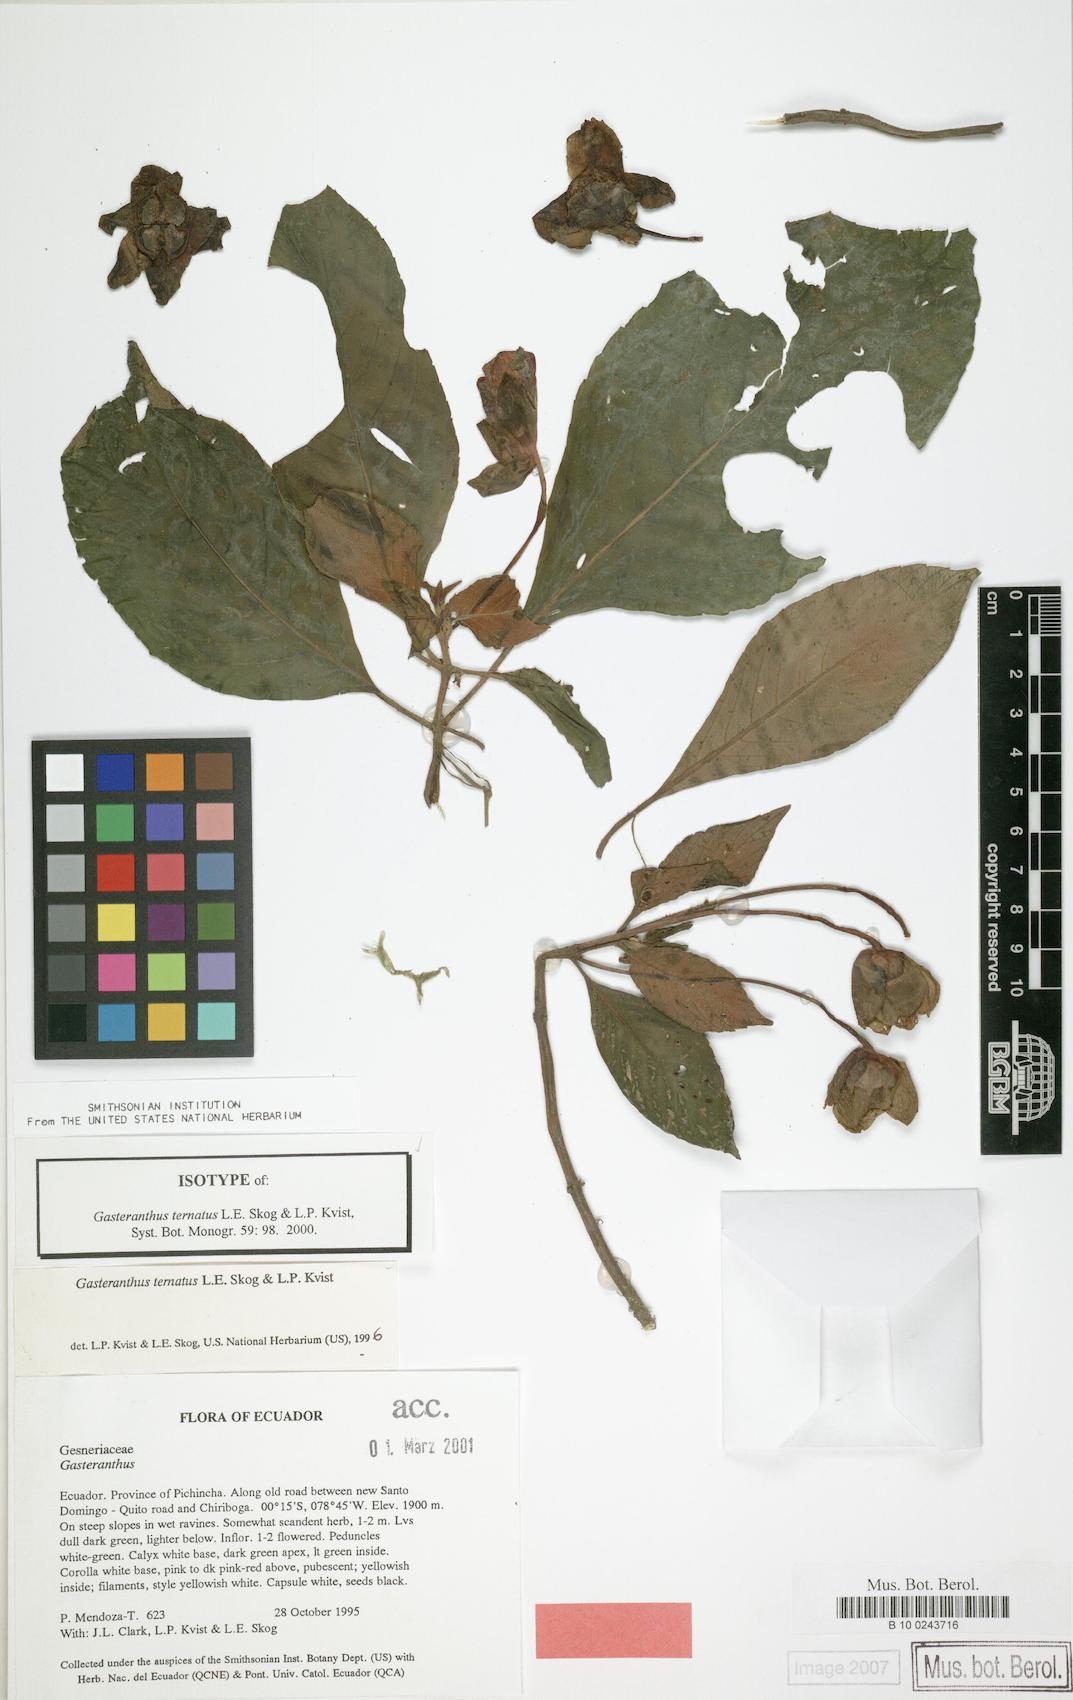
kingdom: Plantae
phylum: Tracheophyta
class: Magnoliopsida
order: Lamiales
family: Gesneriaceae
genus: Gasteranthus
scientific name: Gasteranthus ternatus
